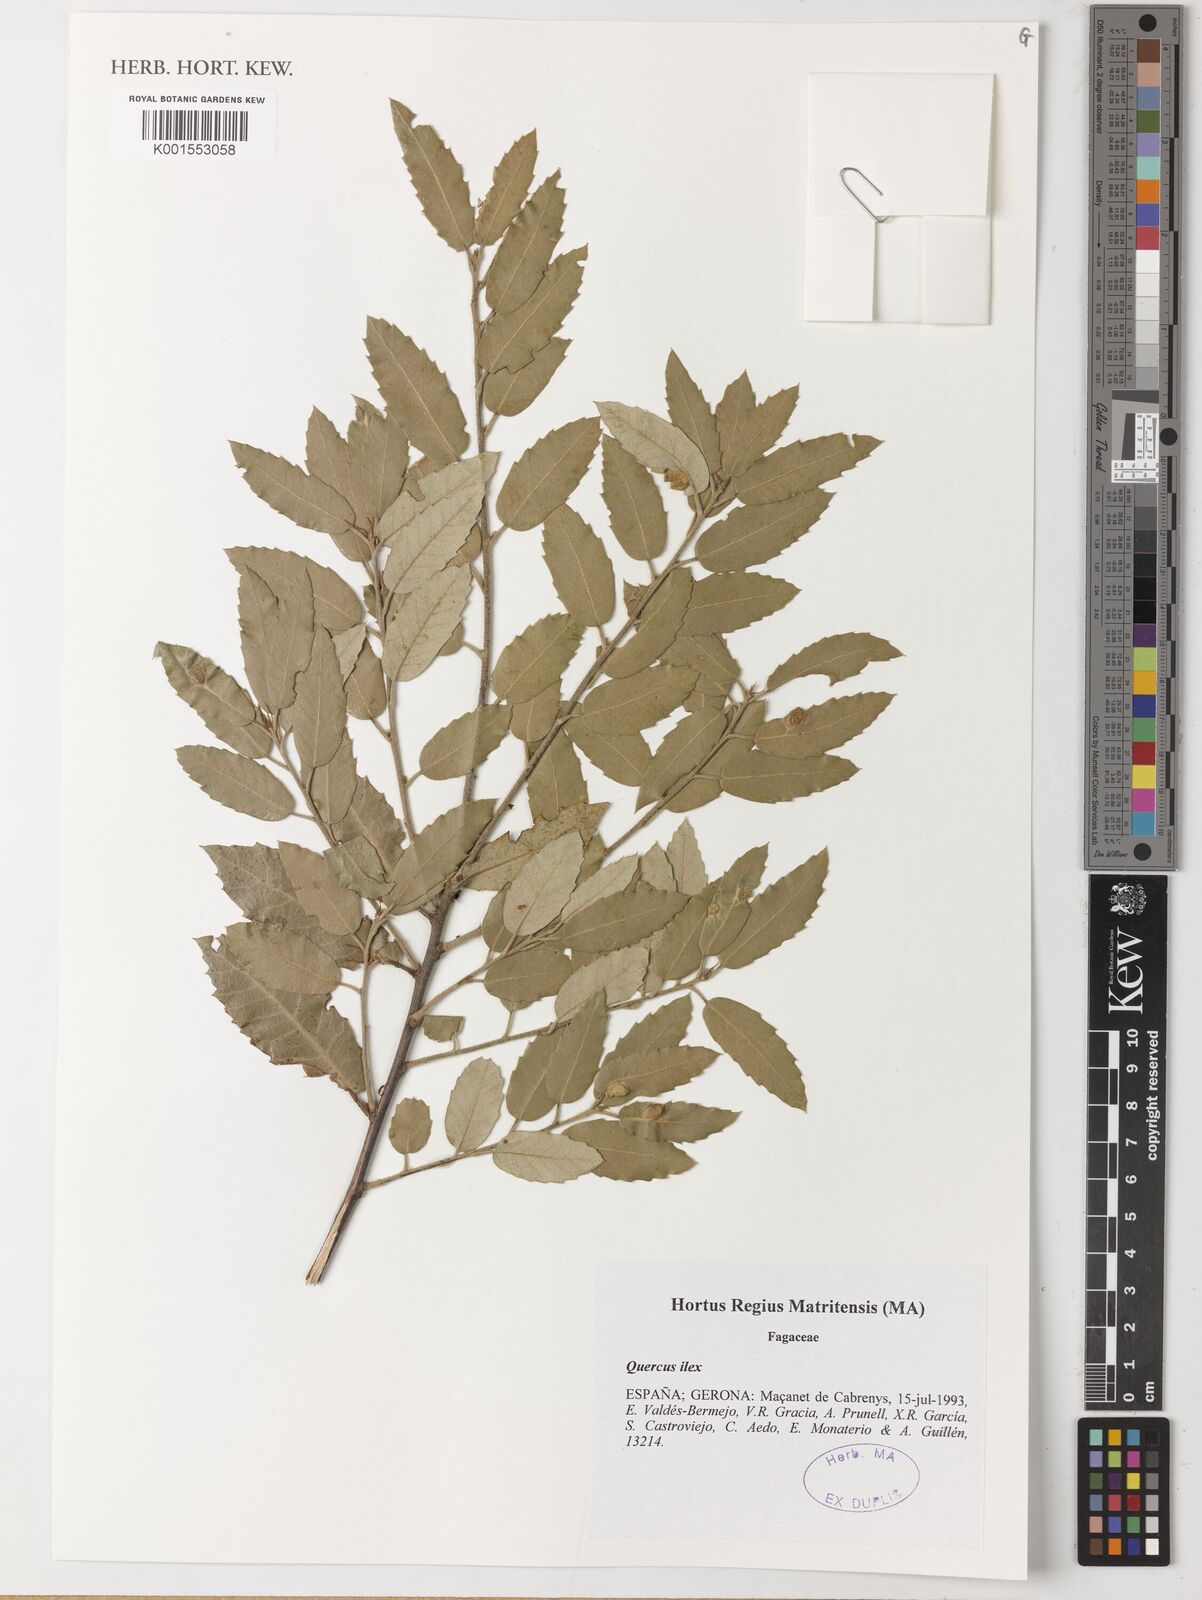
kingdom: Plantae
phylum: Tracheophyta
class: Magnoliopsida
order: Fagales
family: Fagaceae
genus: Quercus
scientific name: Quercus ilex
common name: Evergreen oak
